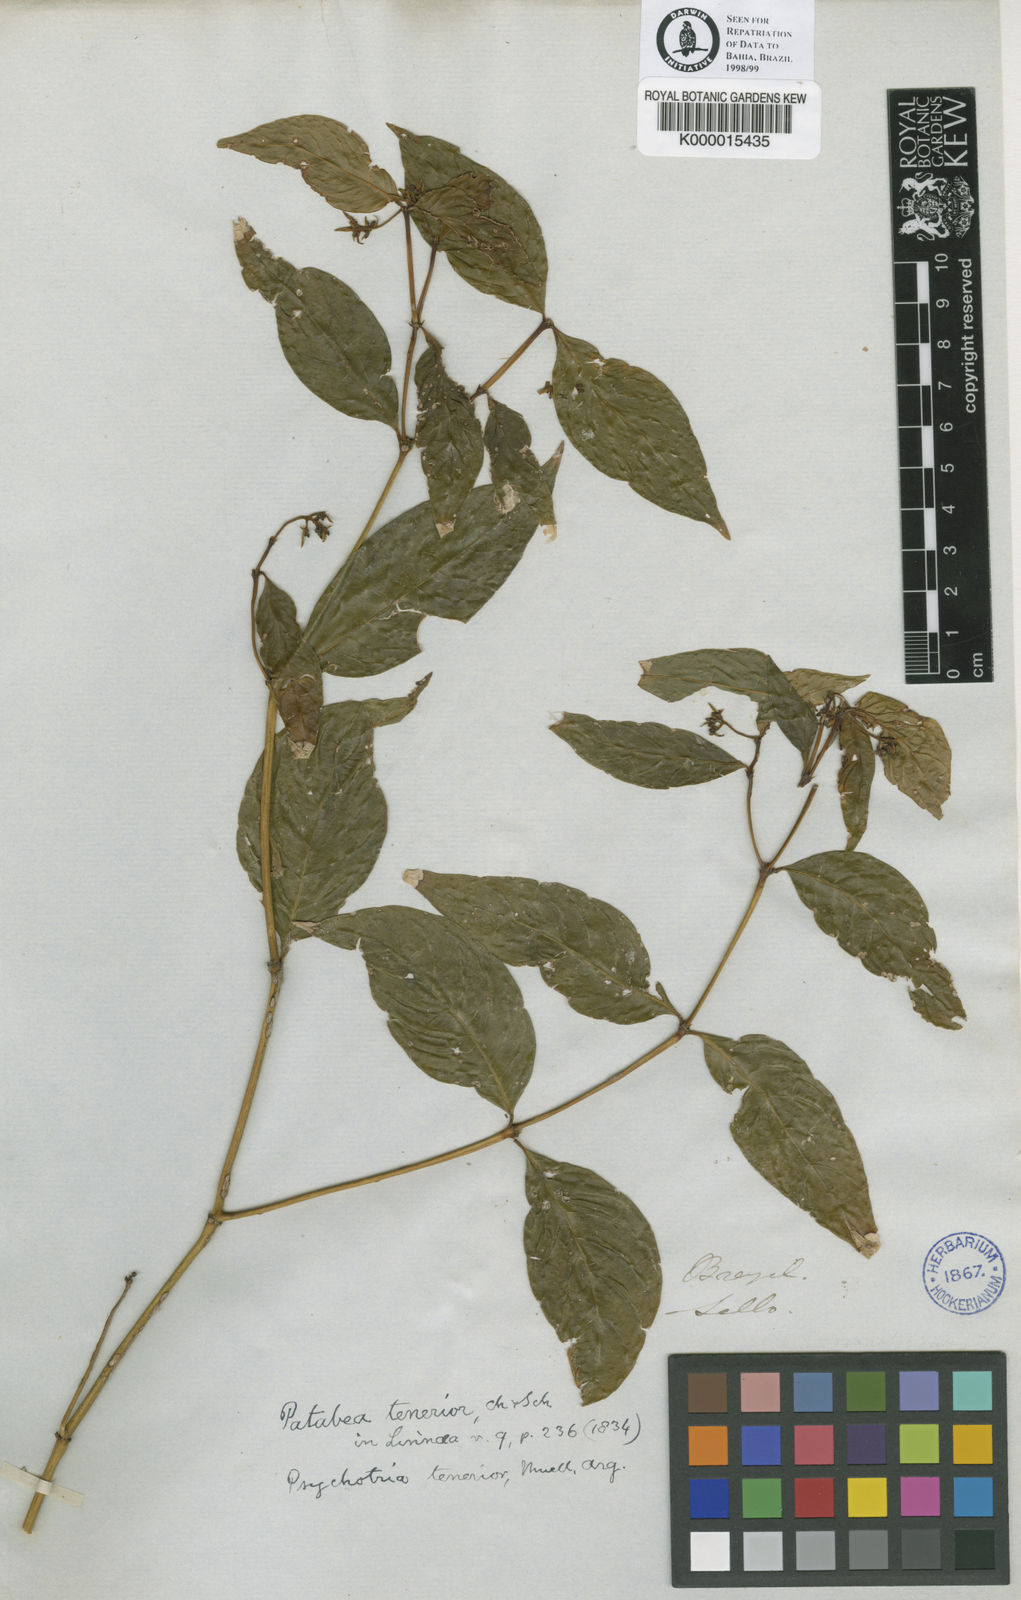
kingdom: Plantae
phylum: Tracheophyta
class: Magnoliopsida
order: Gentianales
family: Rubiaceae
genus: Psychotria
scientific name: Psychotria
